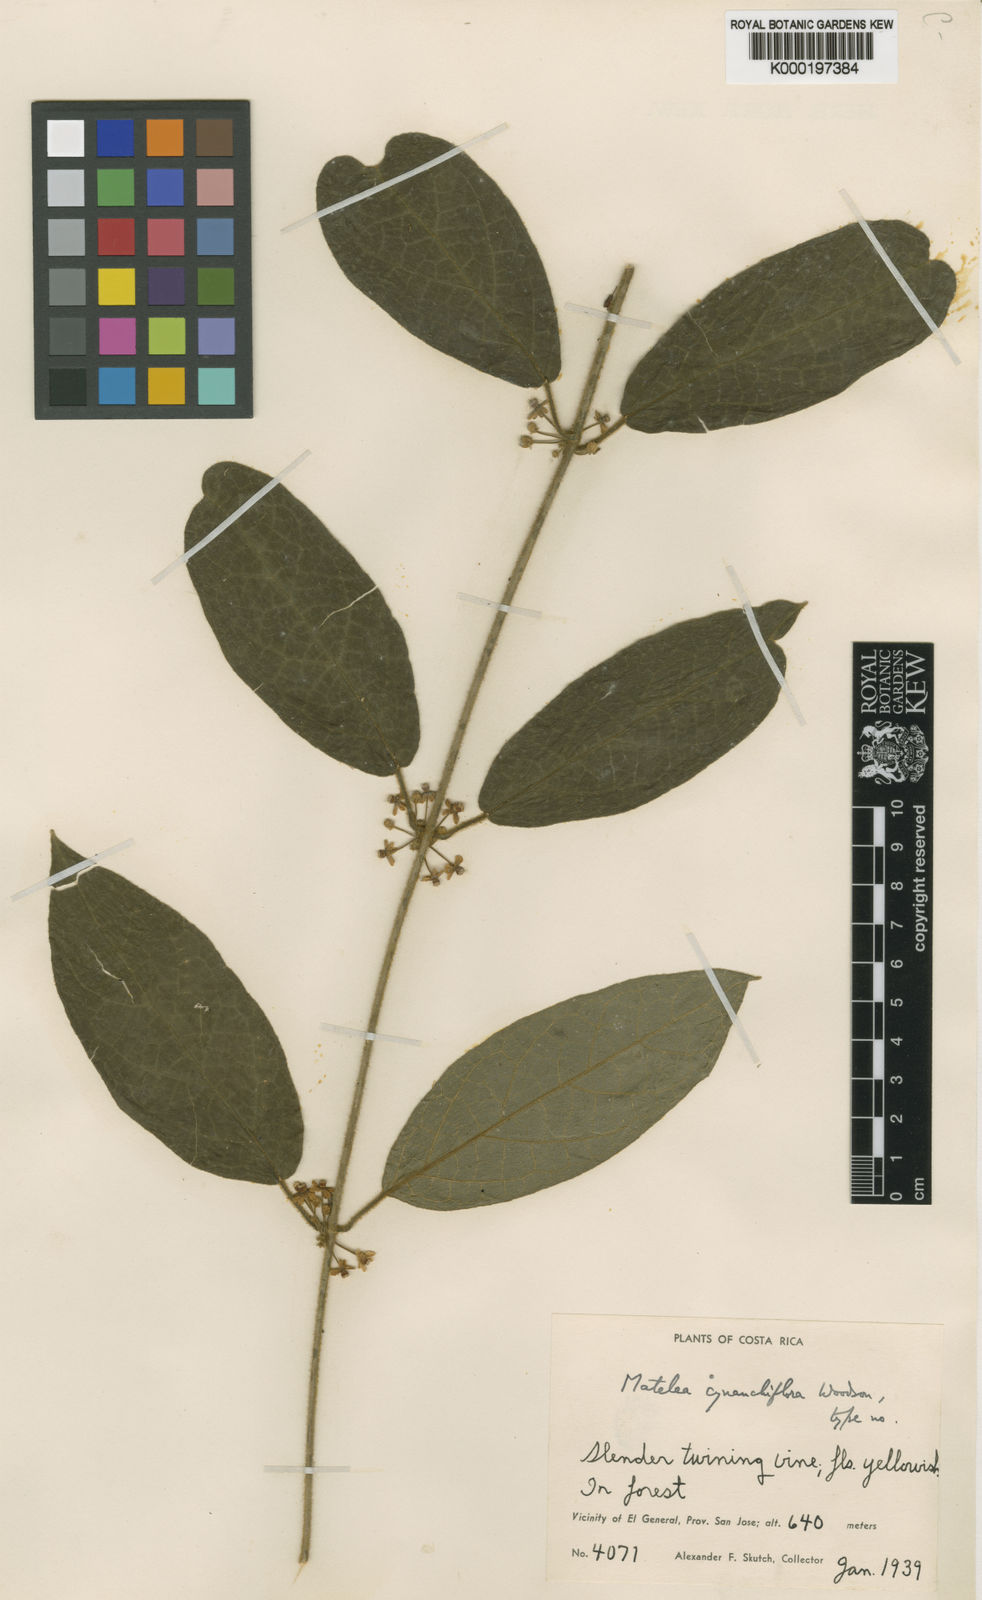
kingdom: Plantae
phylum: Tracheophyta
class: Magnoliopsida
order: Gentianales
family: Apocynaceae
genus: Pseudolachnostoma
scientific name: Pseudolachnostoma cynanchiflorum
